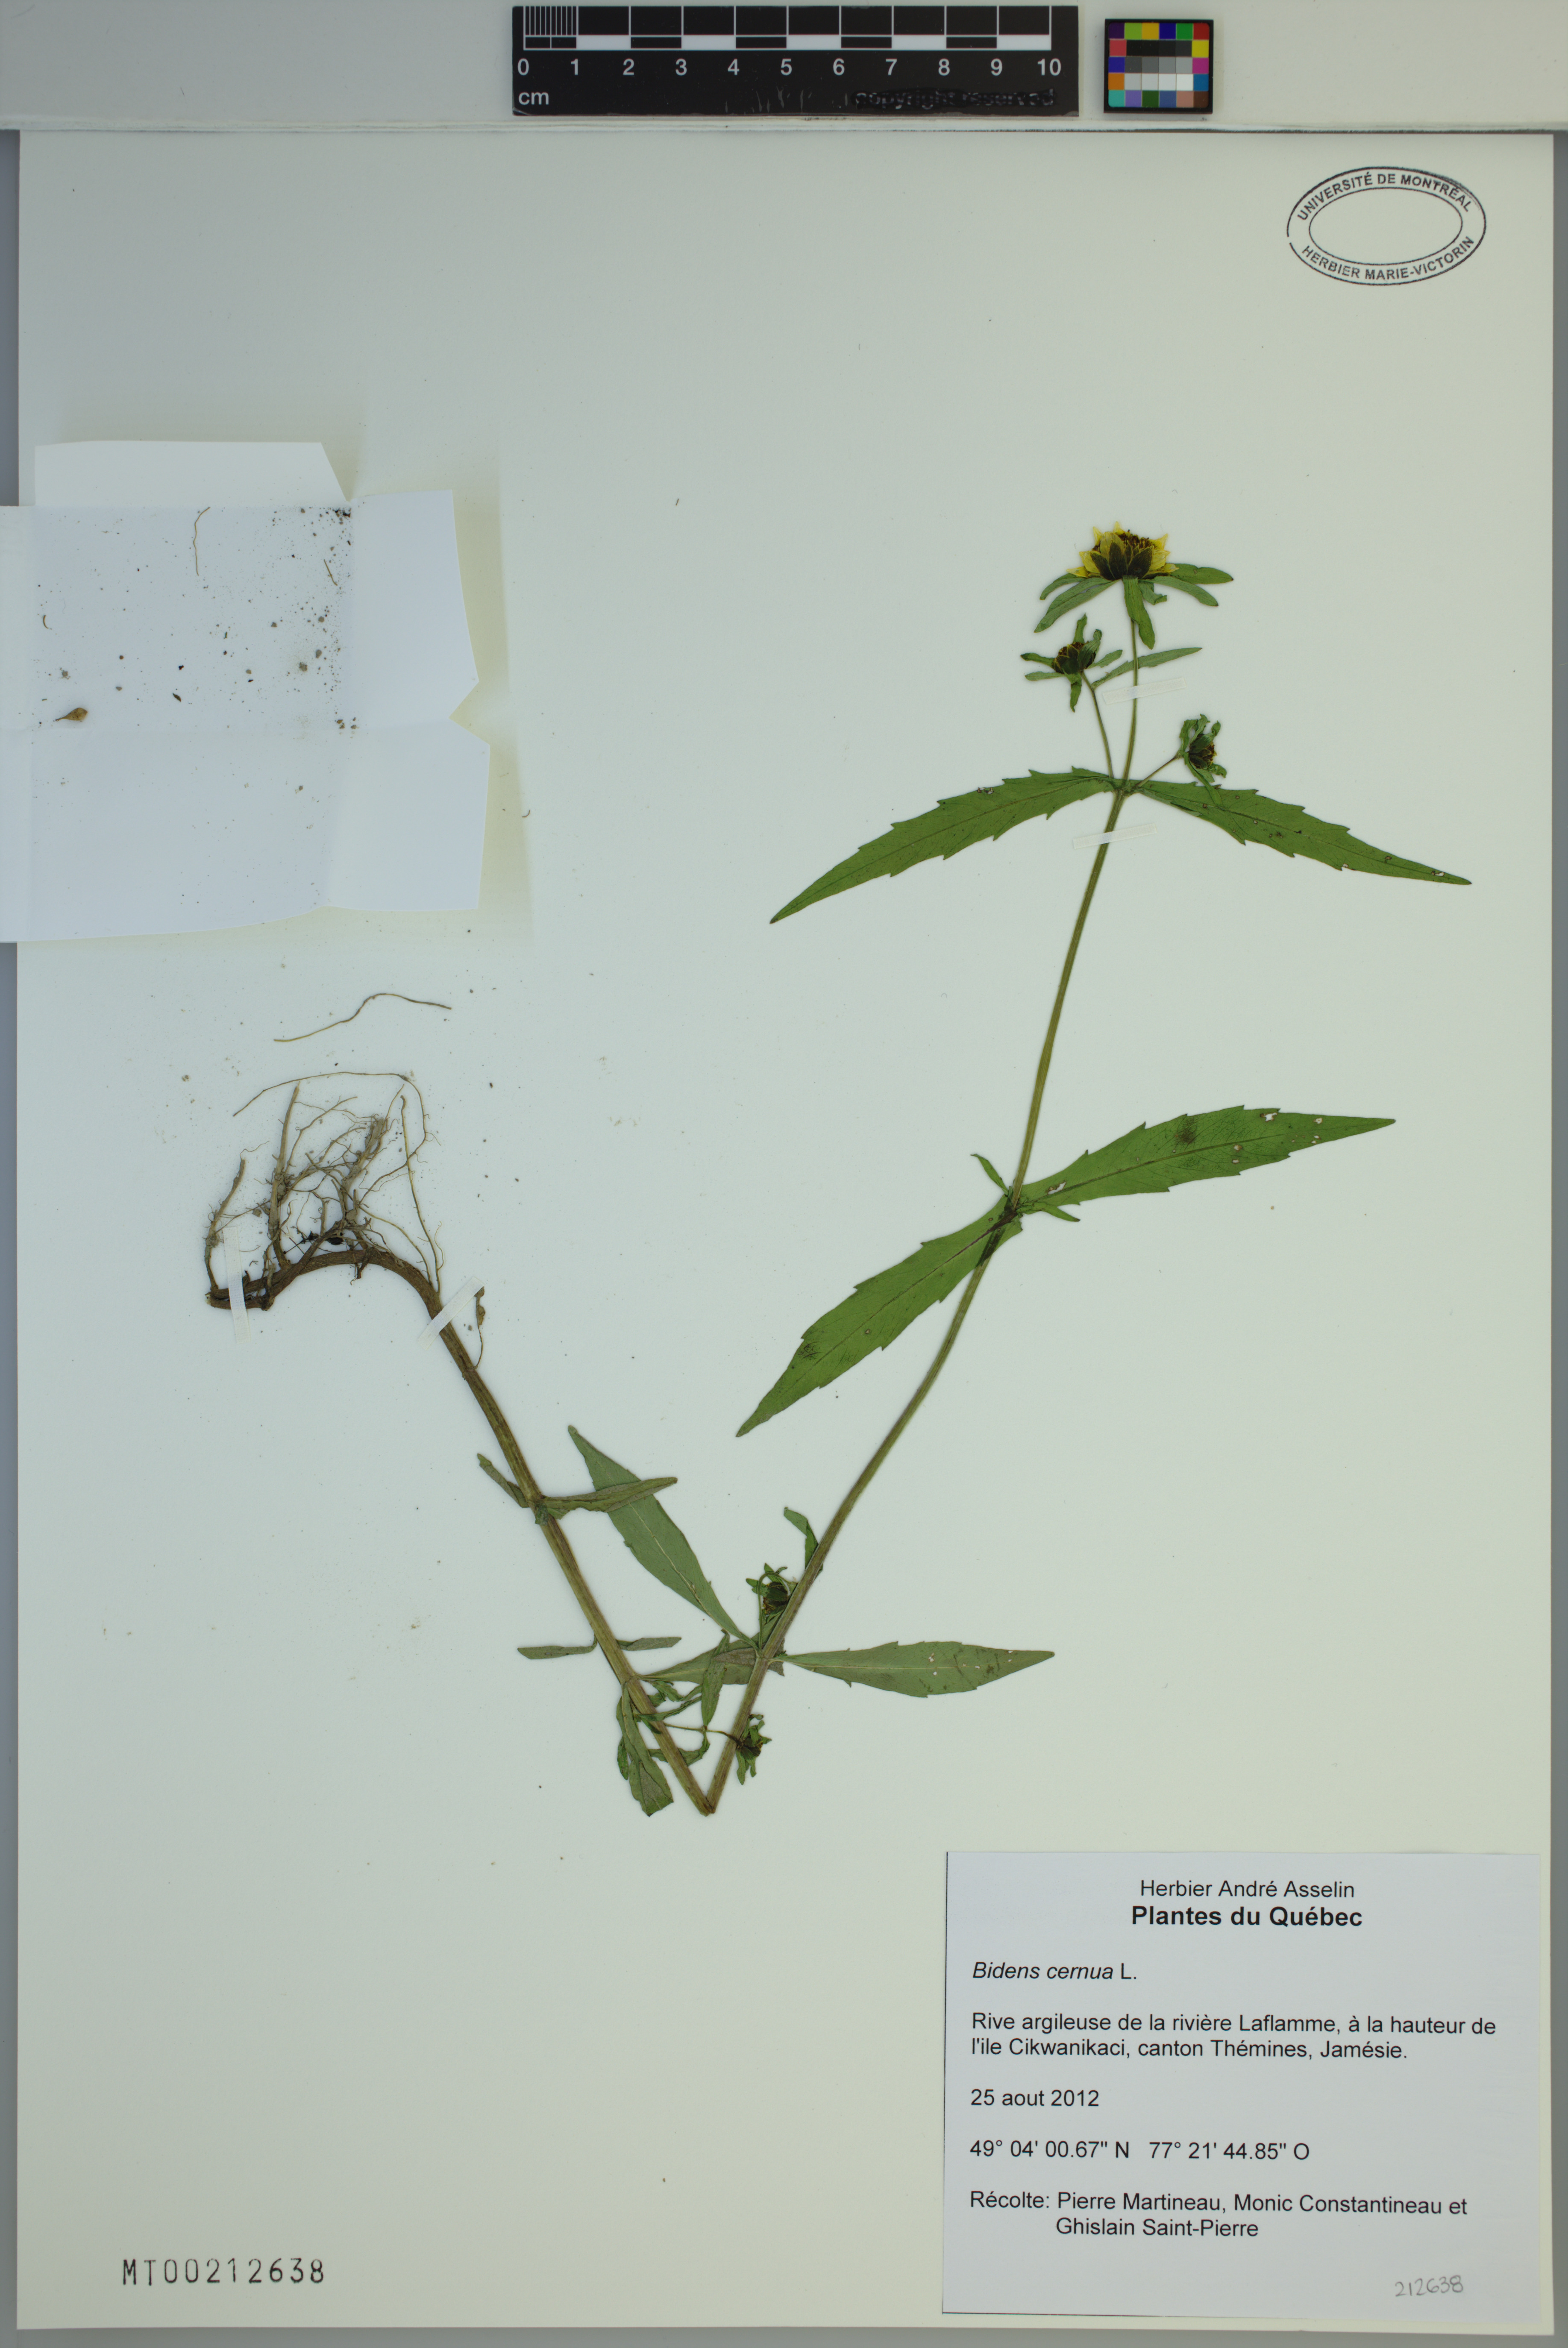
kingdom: Plantae
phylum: Tracheophyta
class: Magnoliopsida
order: Asterales
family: Asteraceae
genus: Bidens
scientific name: Bidens cernua
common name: Nodding bur-marigold
